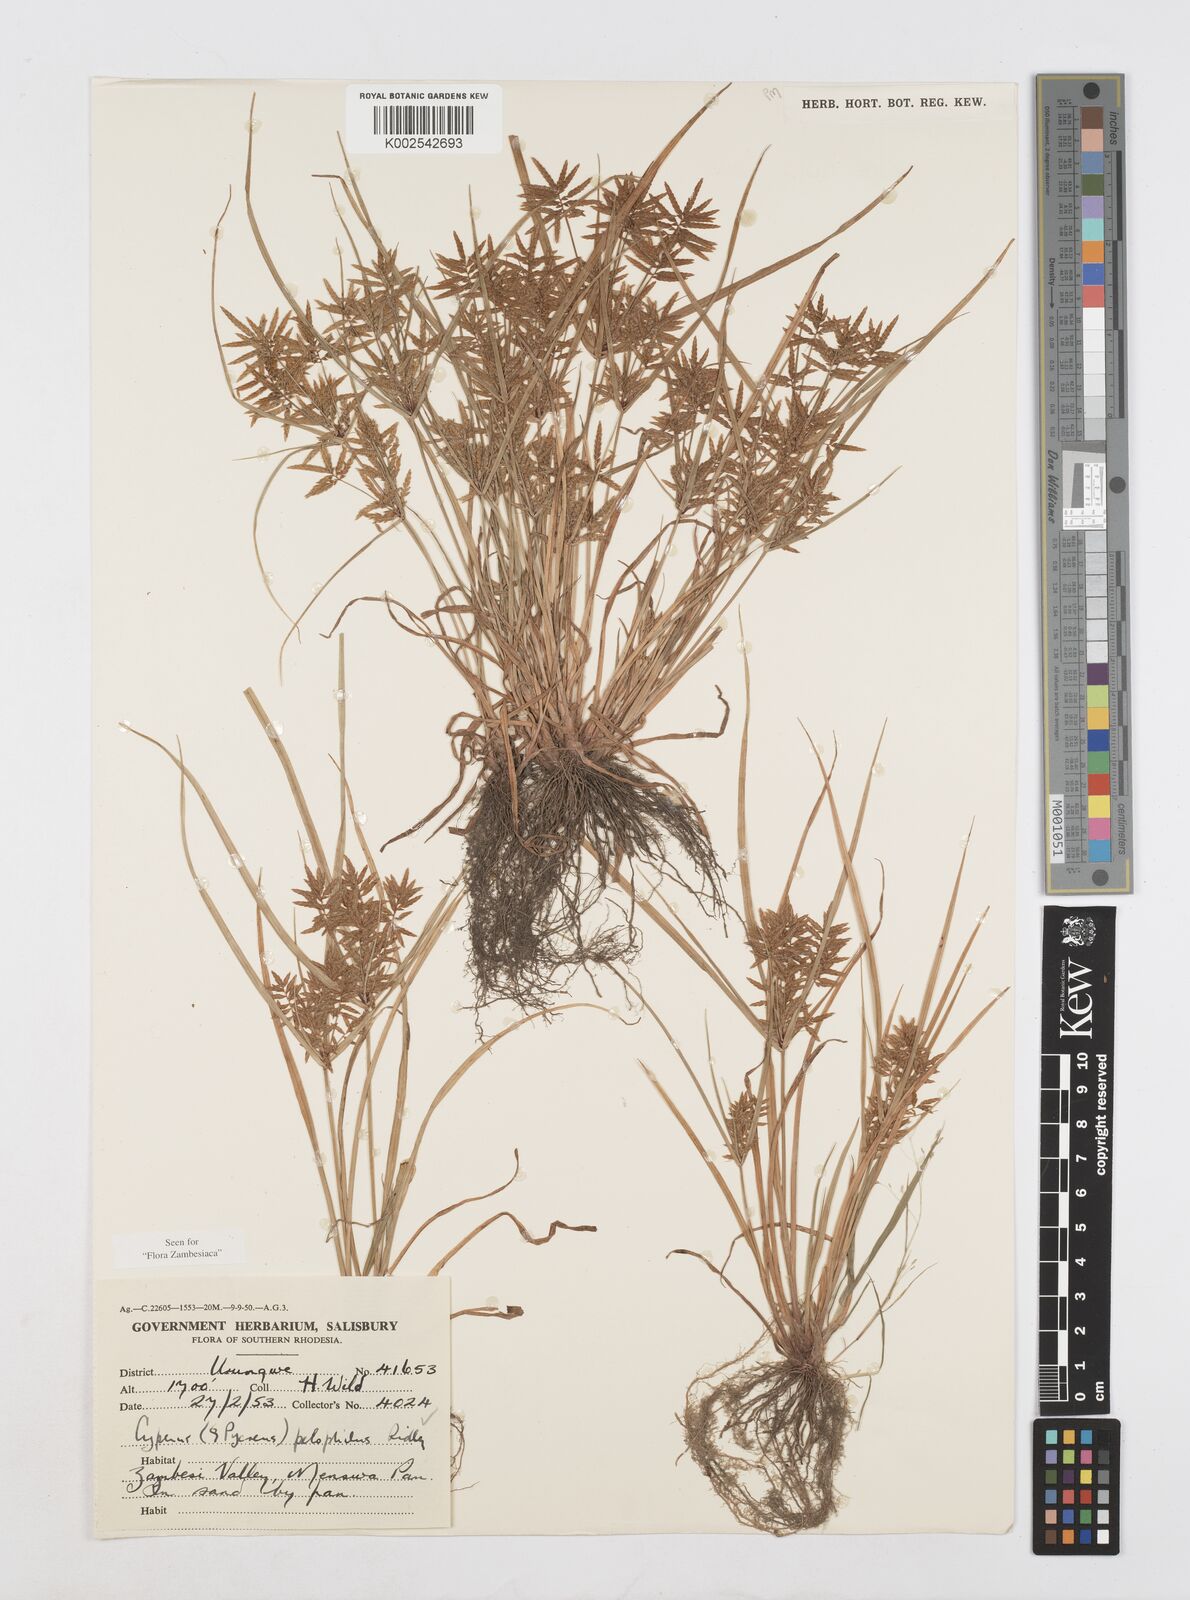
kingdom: Plantae
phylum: Tracheophyta
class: Liliopsida
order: Poales
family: Cyperaceae
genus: Cyperus
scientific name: Cyperus pelophilus
